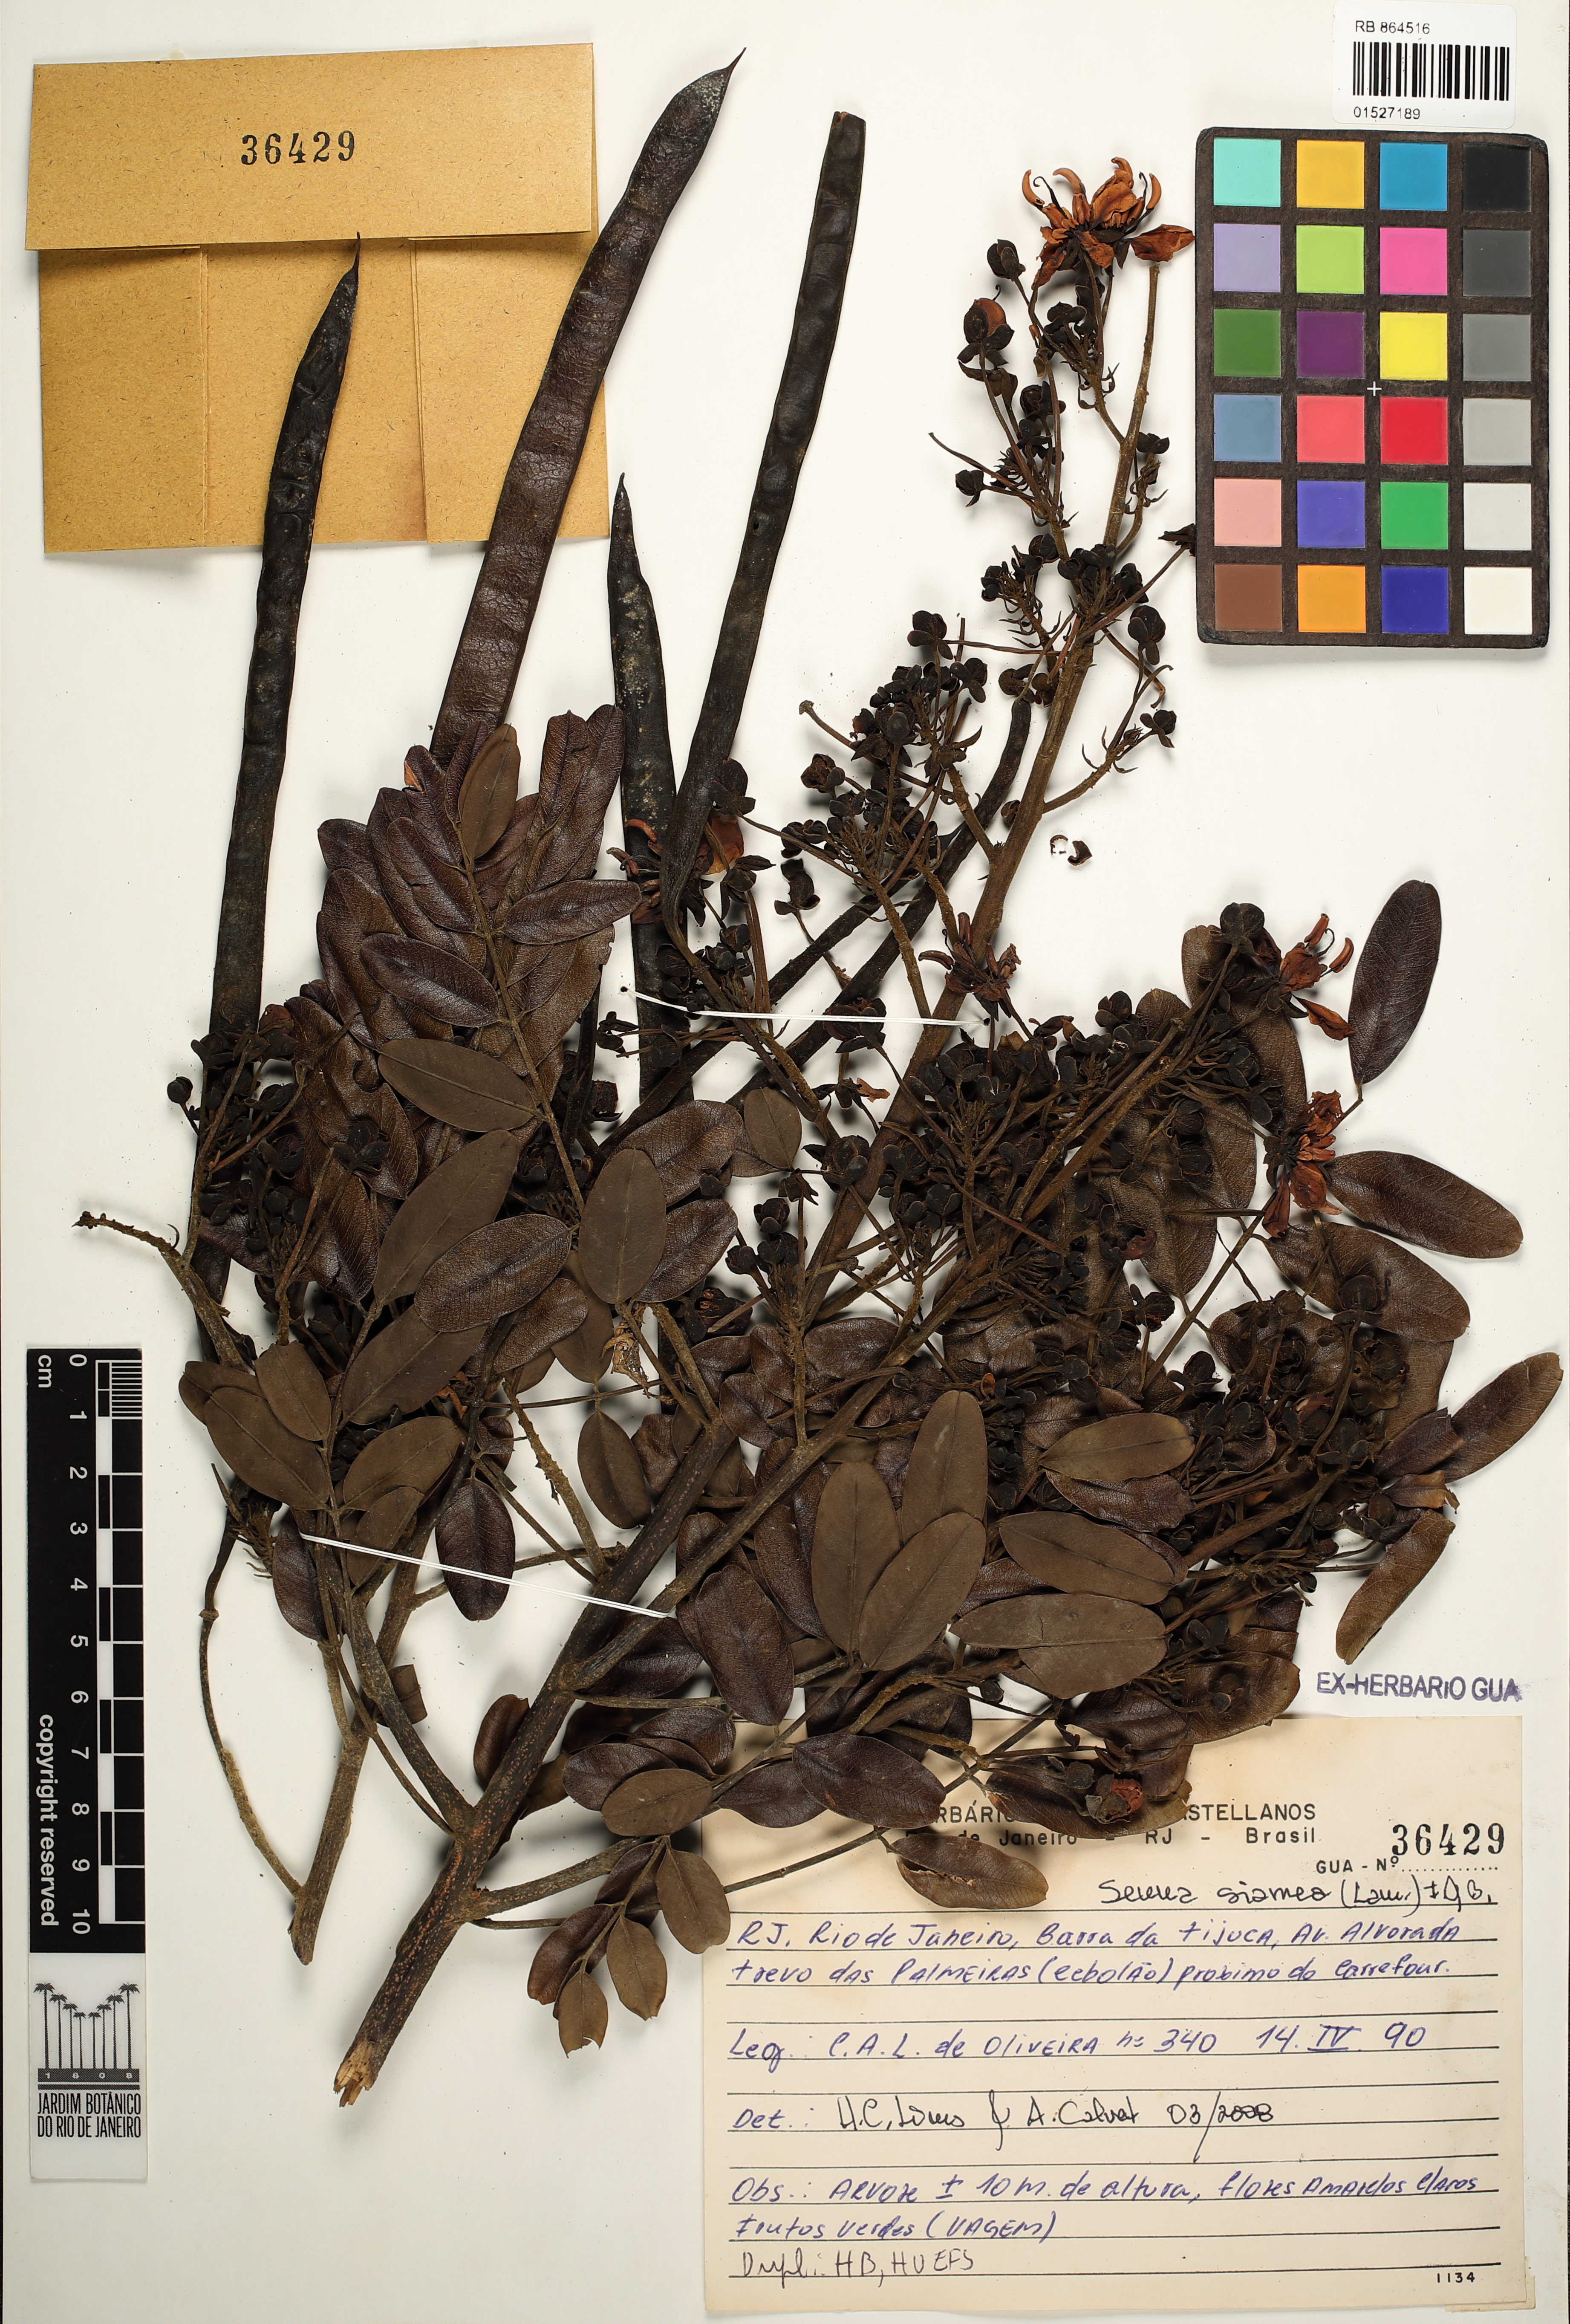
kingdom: Plantae
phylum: Tracheophyta
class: Magnoliopsida
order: Fabales
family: Fabaceae
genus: Senna
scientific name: Senna siamea
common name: Siamese cassia
